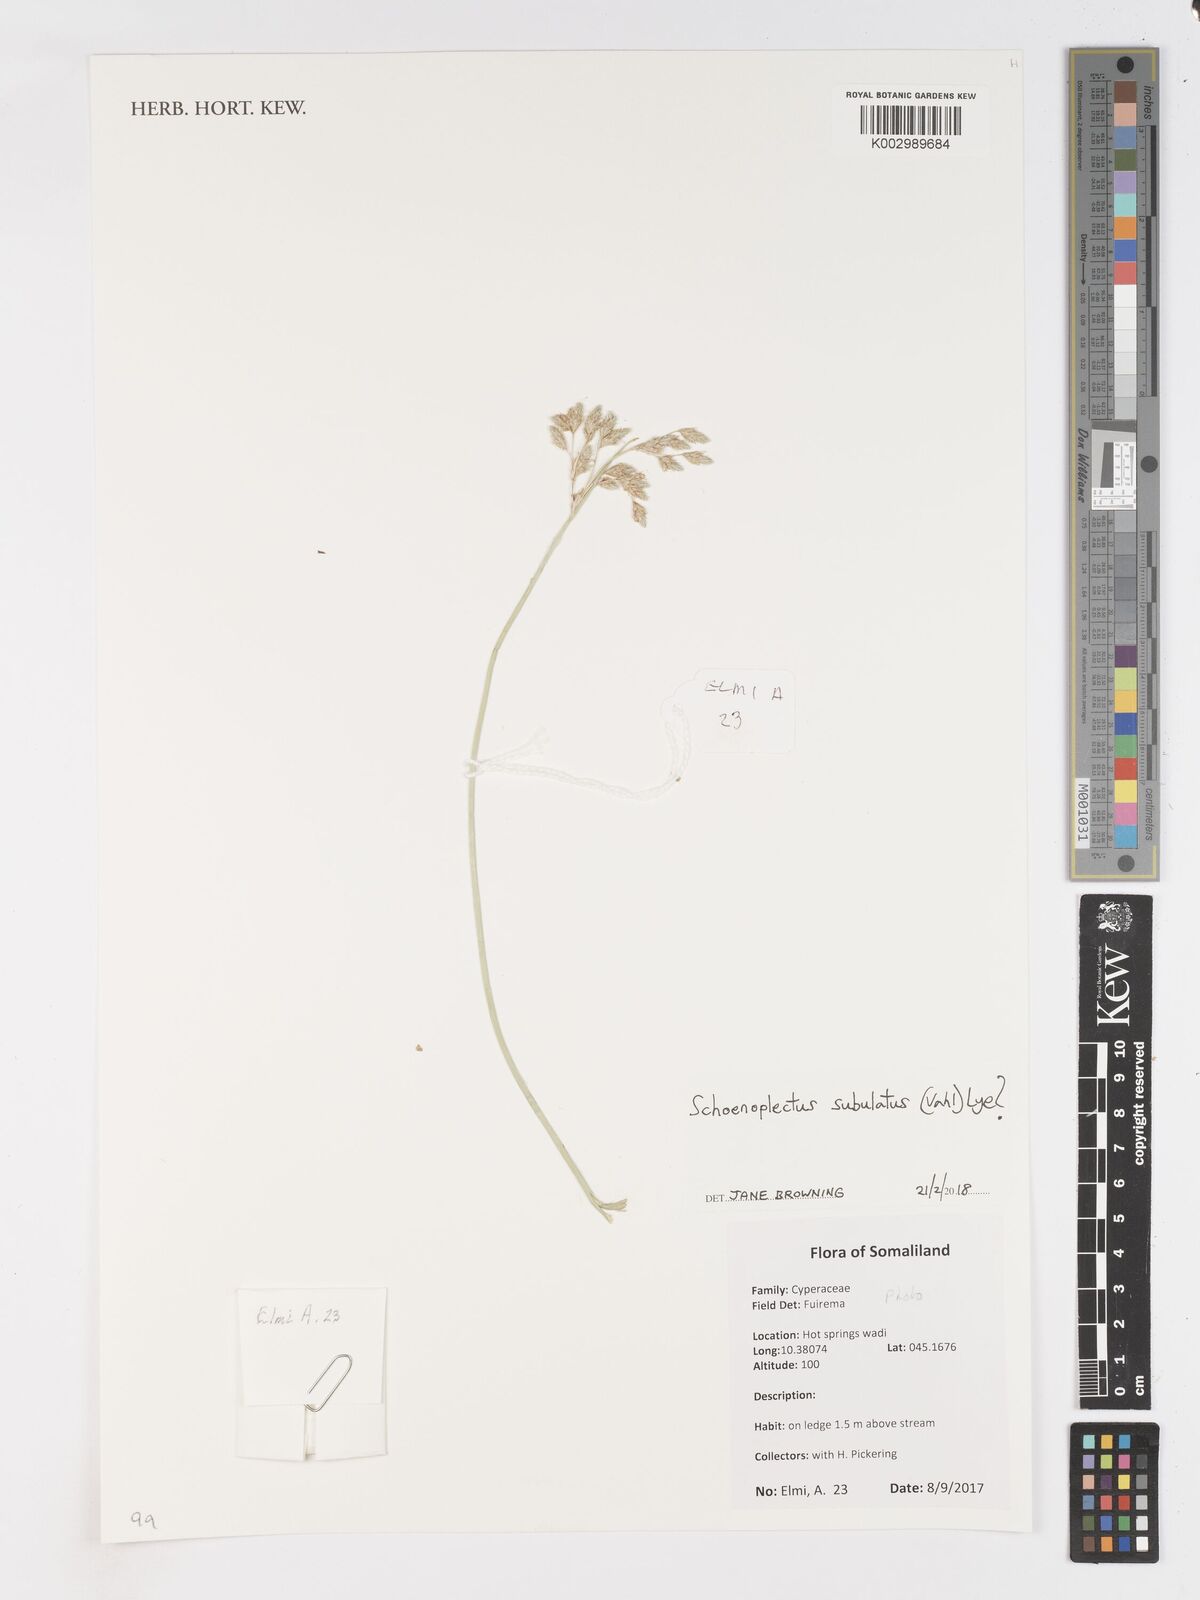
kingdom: Plantae
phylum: Tracheophyta
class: Liliopsida
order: Poales
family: Cyperaceae
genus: Schoenoplectus
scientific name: Schoenoplectus subulatus
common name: Coast club-rush
